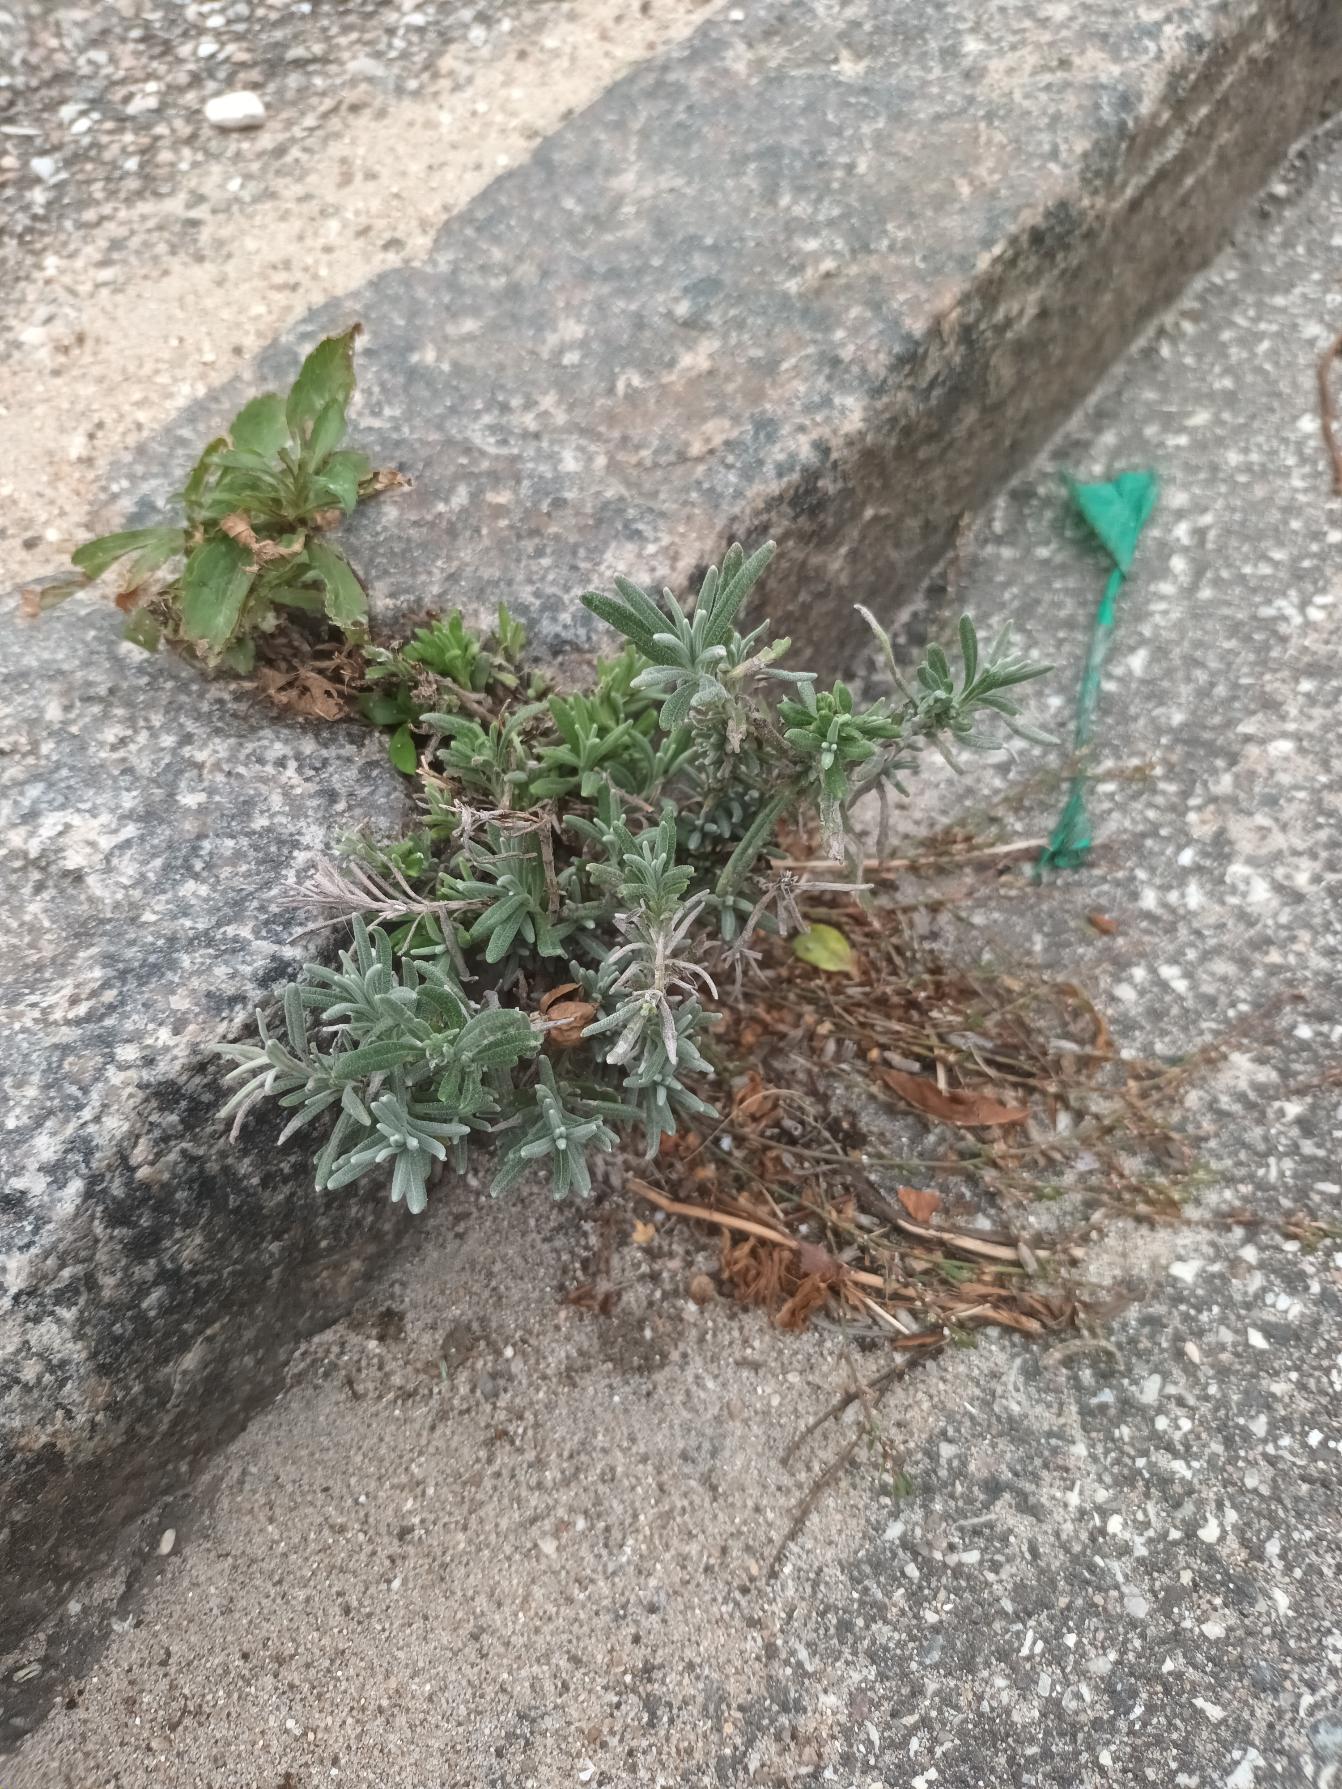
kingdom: Plantae
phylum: Tracheophyta
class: Magnoliopsida
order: Lamiales
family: Lamiaceae
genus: Lavandula
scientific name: Lavandula angustifolia
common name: Ægte lavendel
